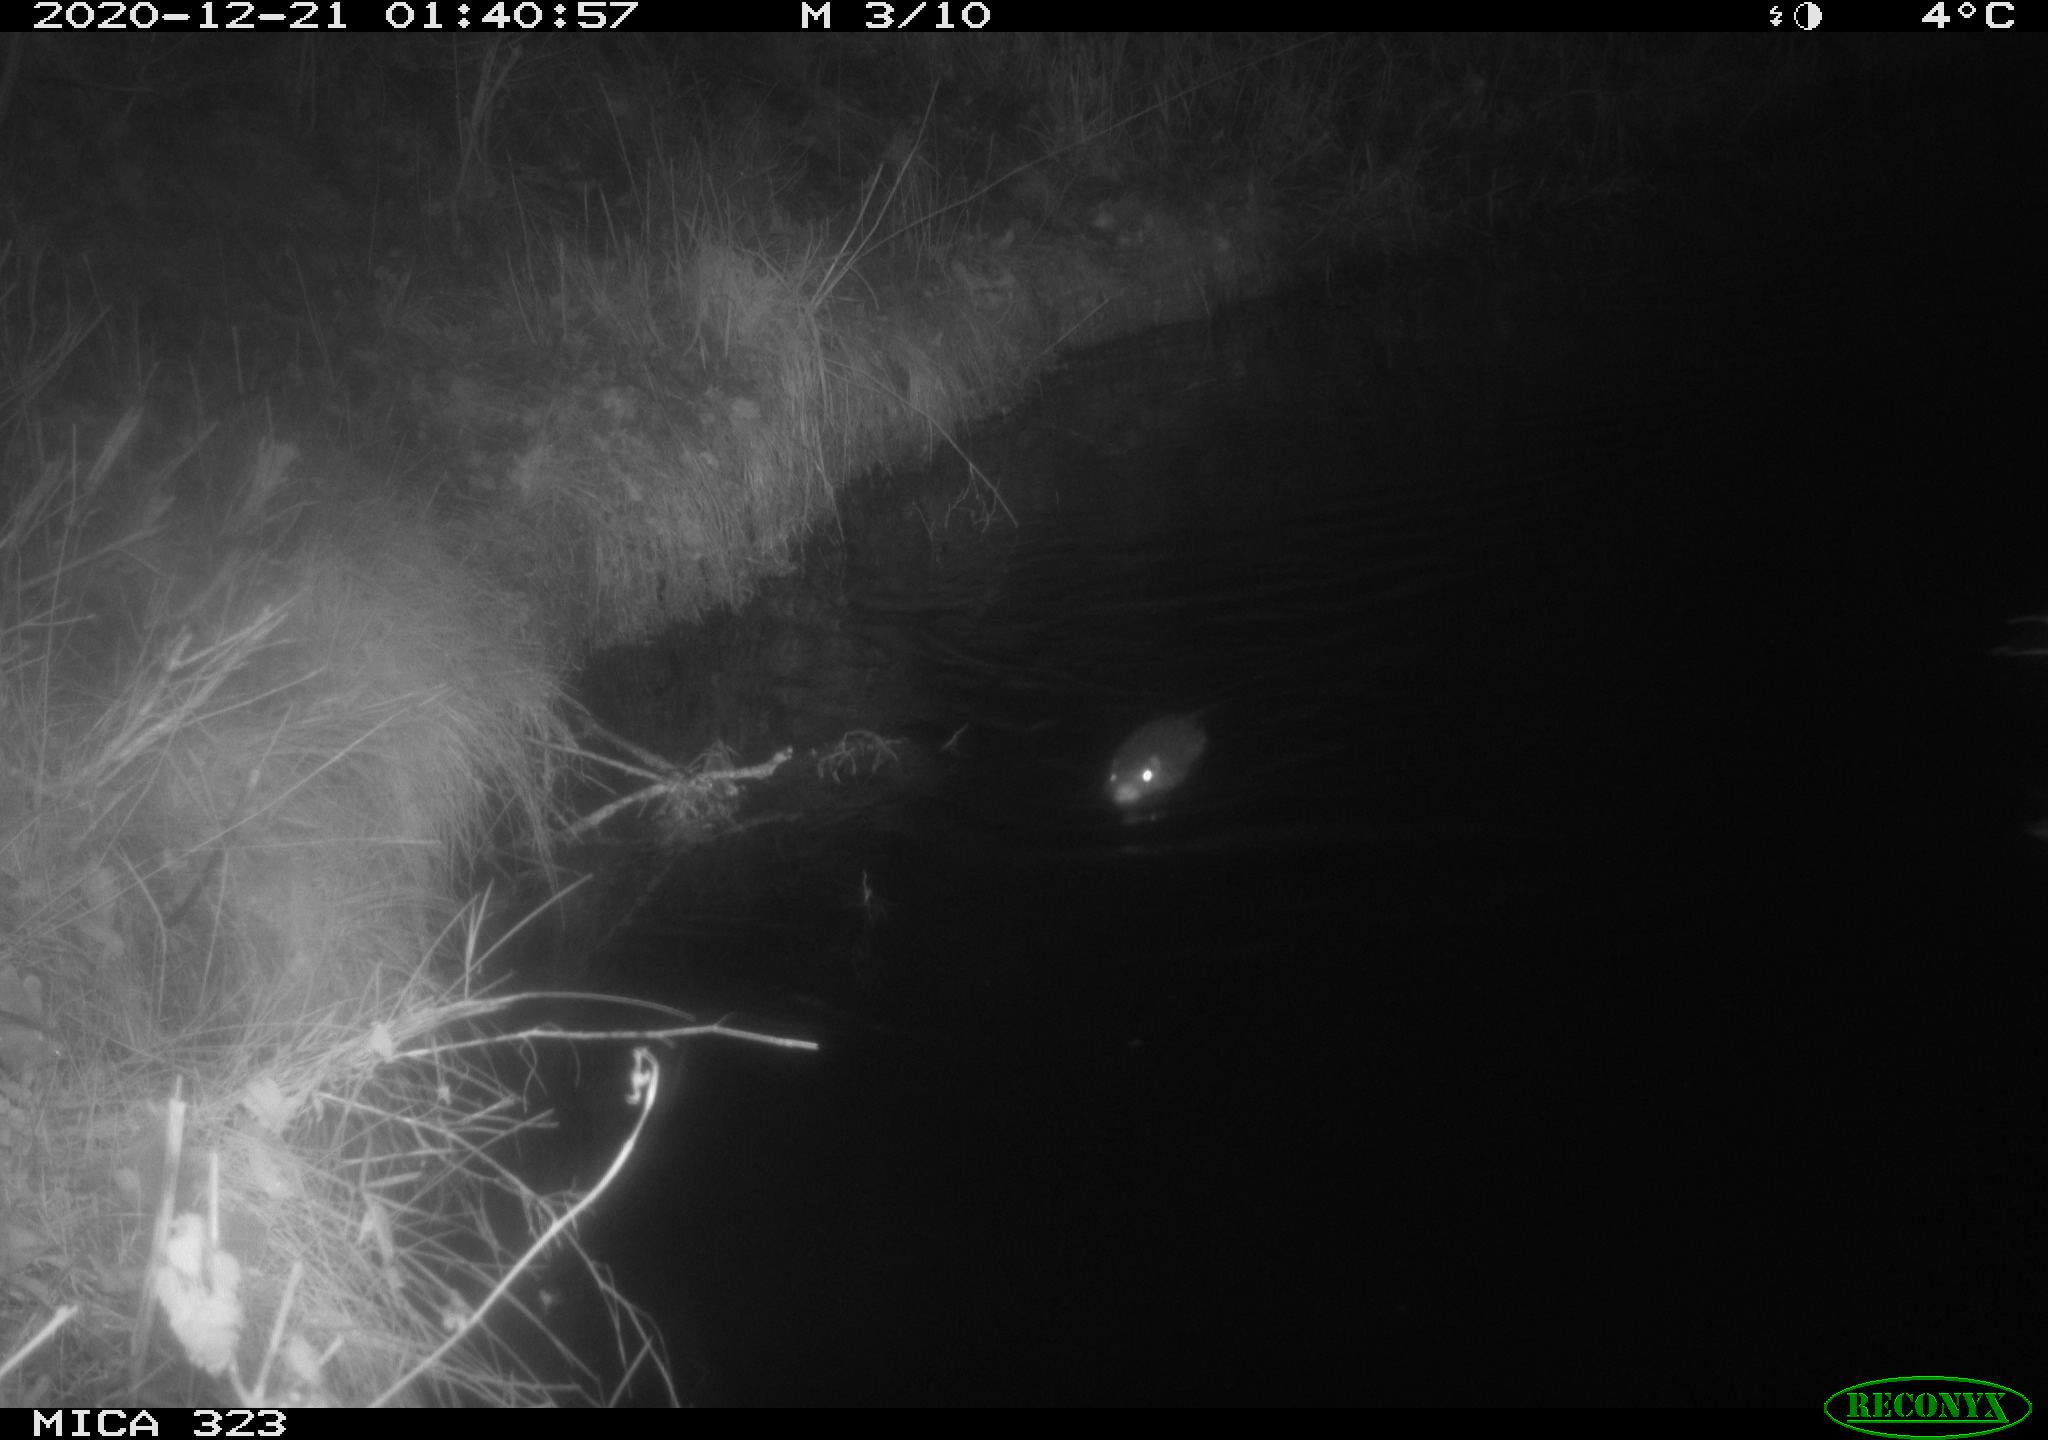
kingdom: Animalia
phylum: Chordata
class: Aves
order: Anseriformes
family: Anatidae
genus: Anas
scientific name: Anas platyrhynchos
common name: Mallard
